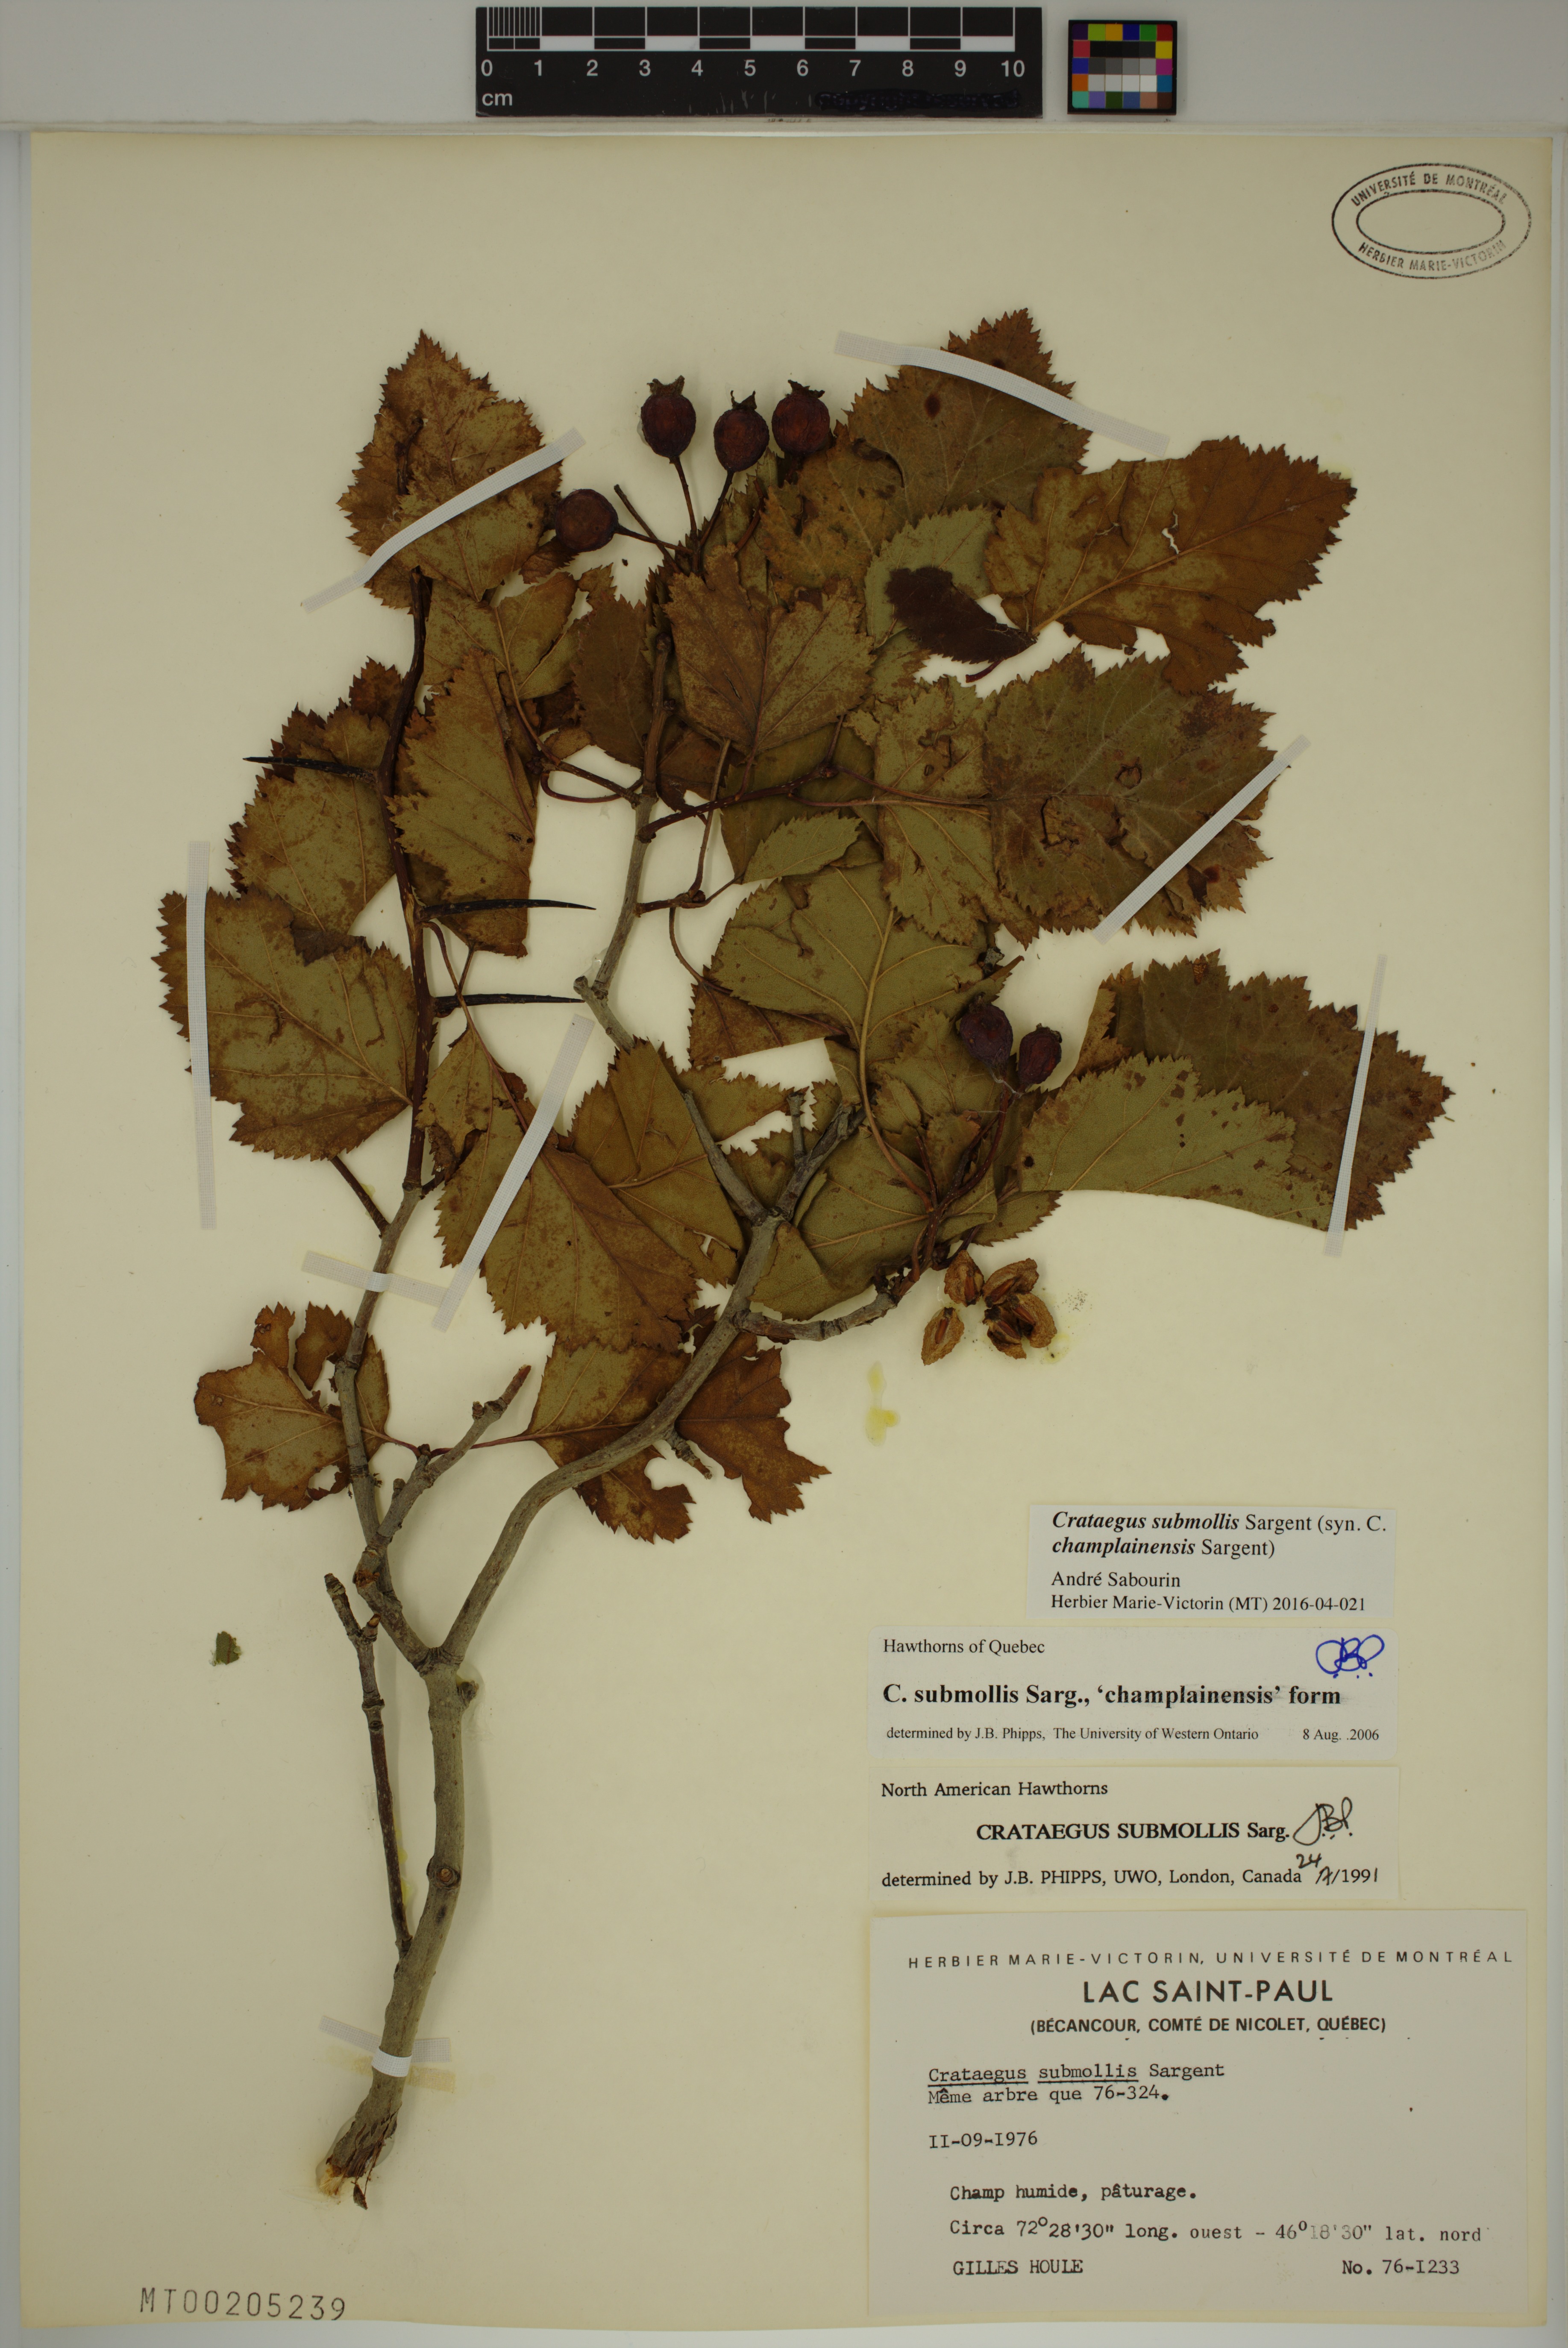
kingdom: Plantae
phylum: Tracheophyta
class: Magnoliopsida
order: Rosales
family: Rosaceae
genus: Crataegus
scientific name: Crataegus submollis
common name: Hairy cockspurthorn
